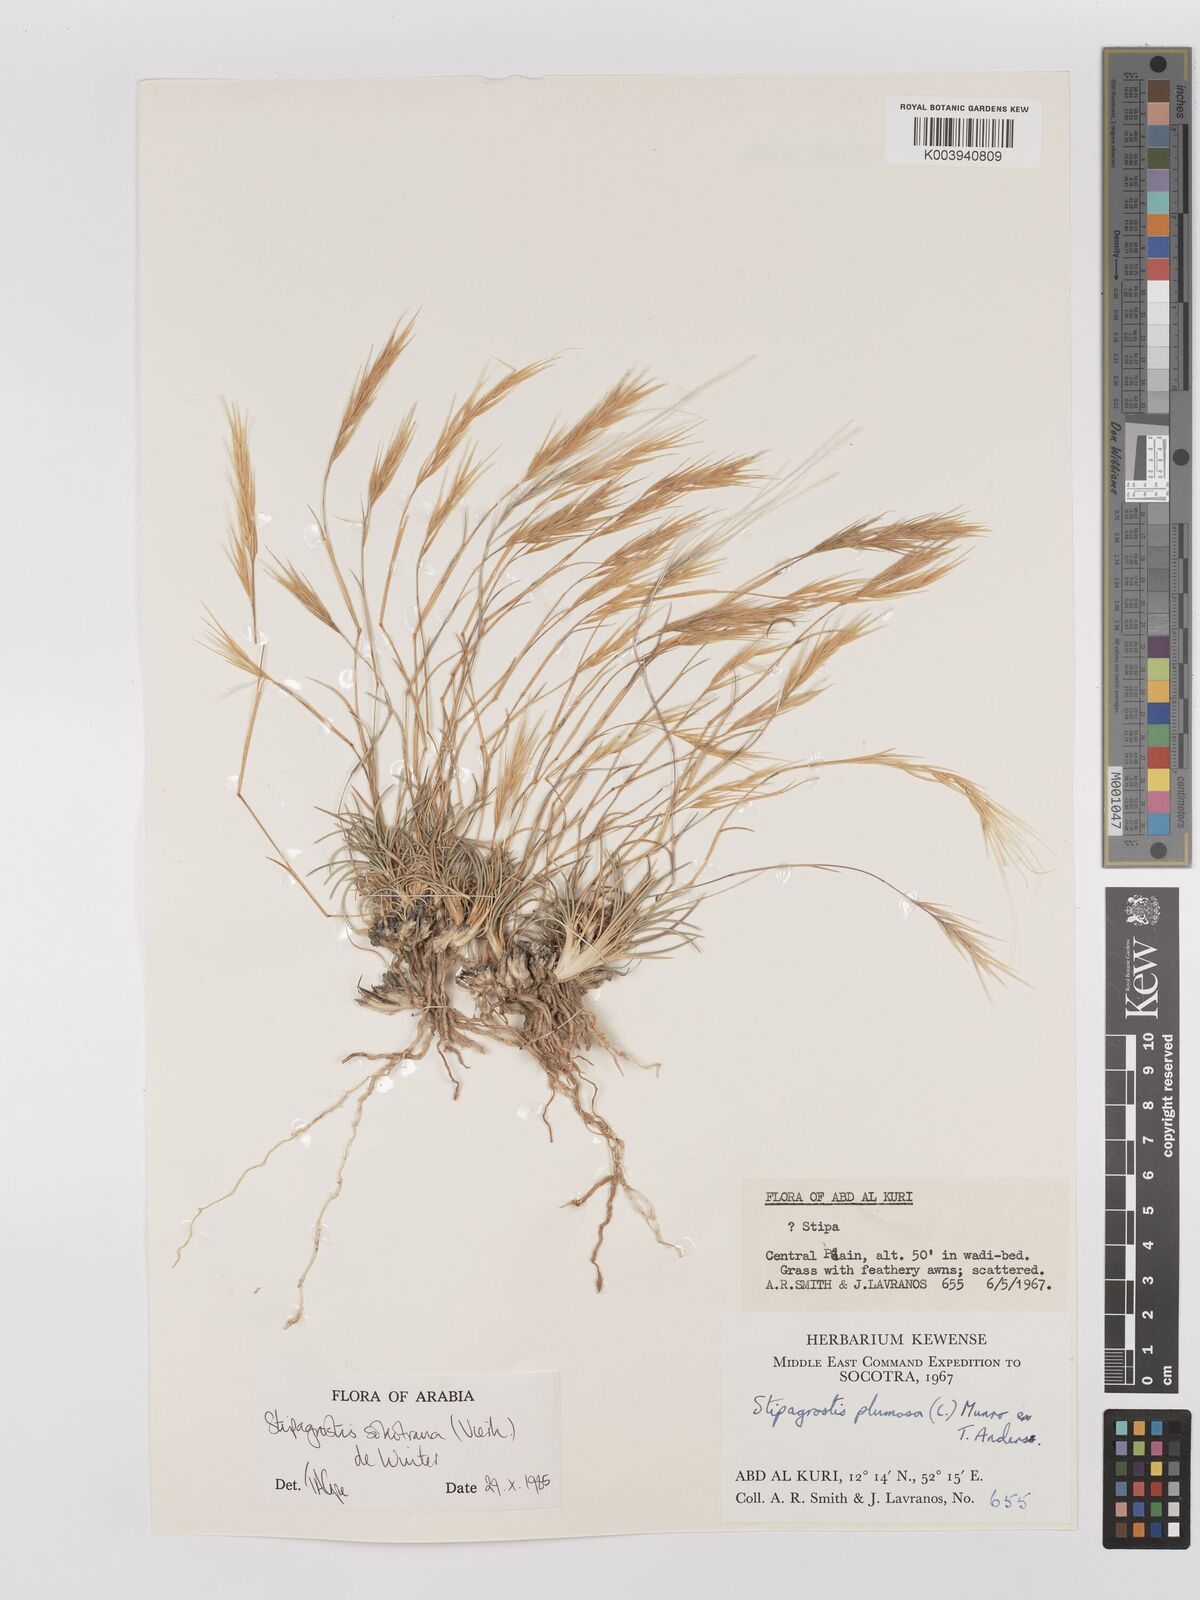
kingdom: Plantae
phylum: Tracheophyta
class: Liliopsida
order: Poales
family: Poaceae
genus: Stipagrostis
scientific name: Stipagrostis sokotrana
